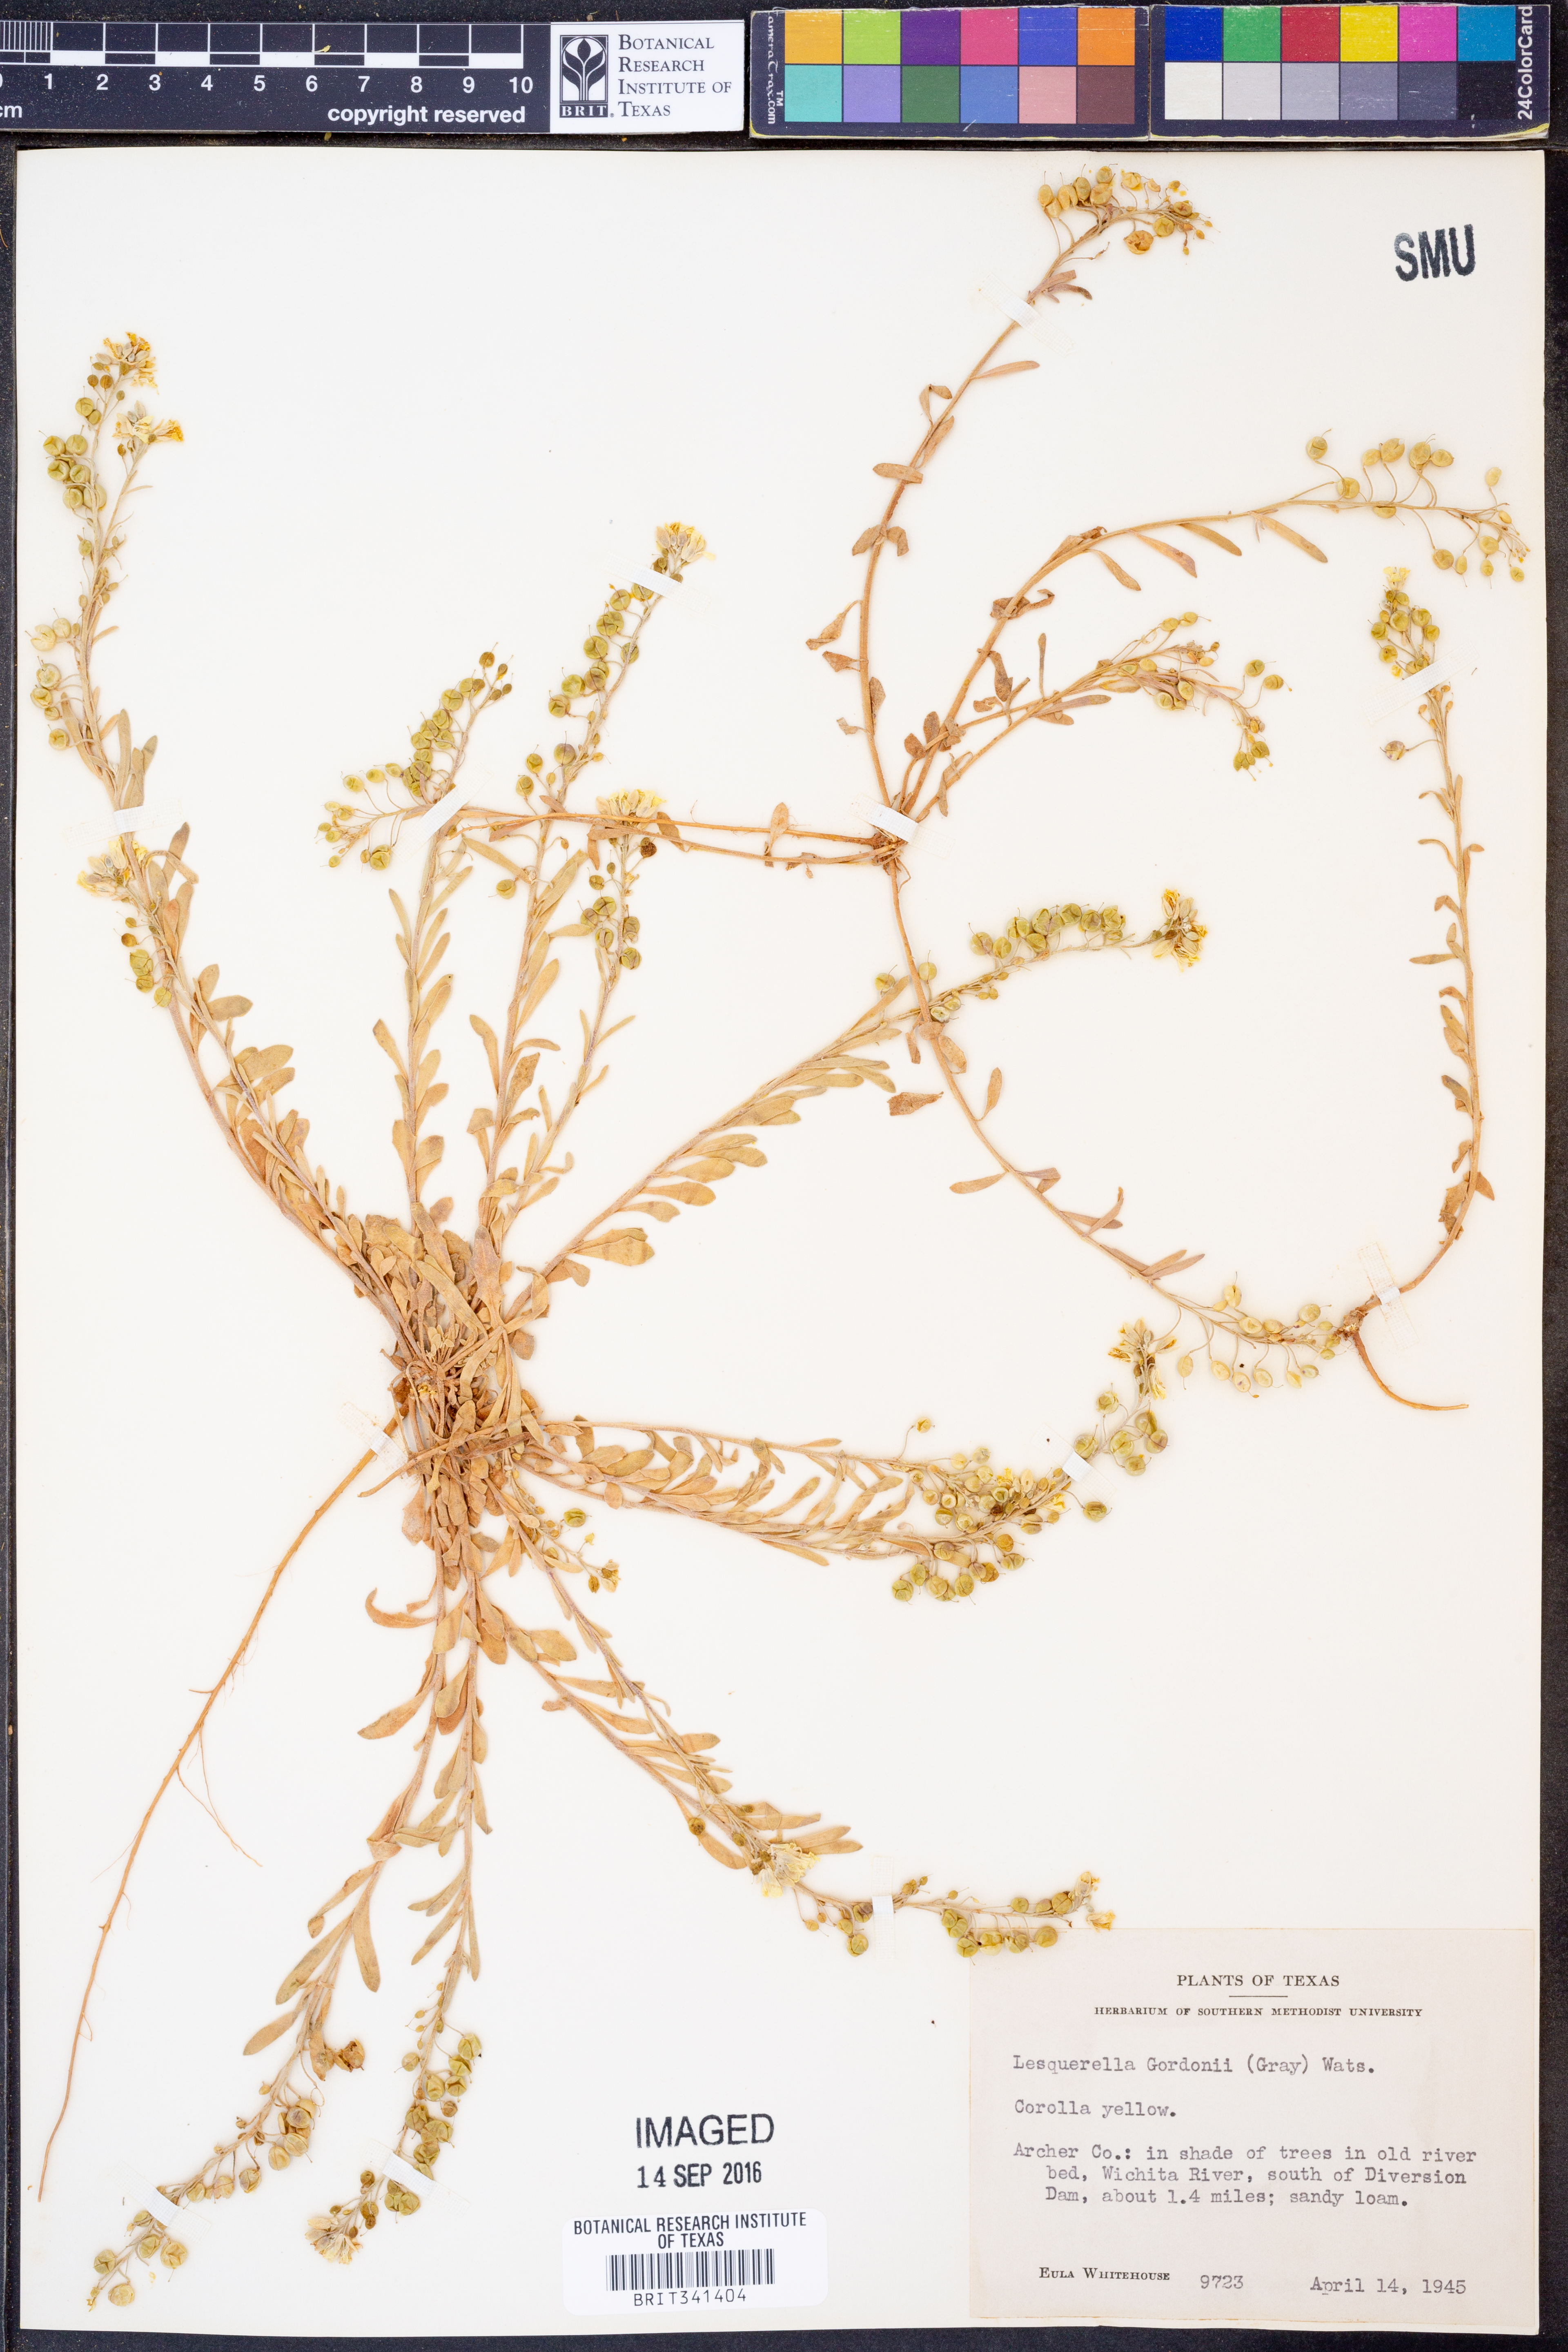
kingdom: Plantae
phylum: Tracheophyta
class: Magnoliopsida
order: Brassicales
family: Brassicaceae
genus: Physaria
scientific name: Physaria gordonii
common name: Gordon's bladderpod
